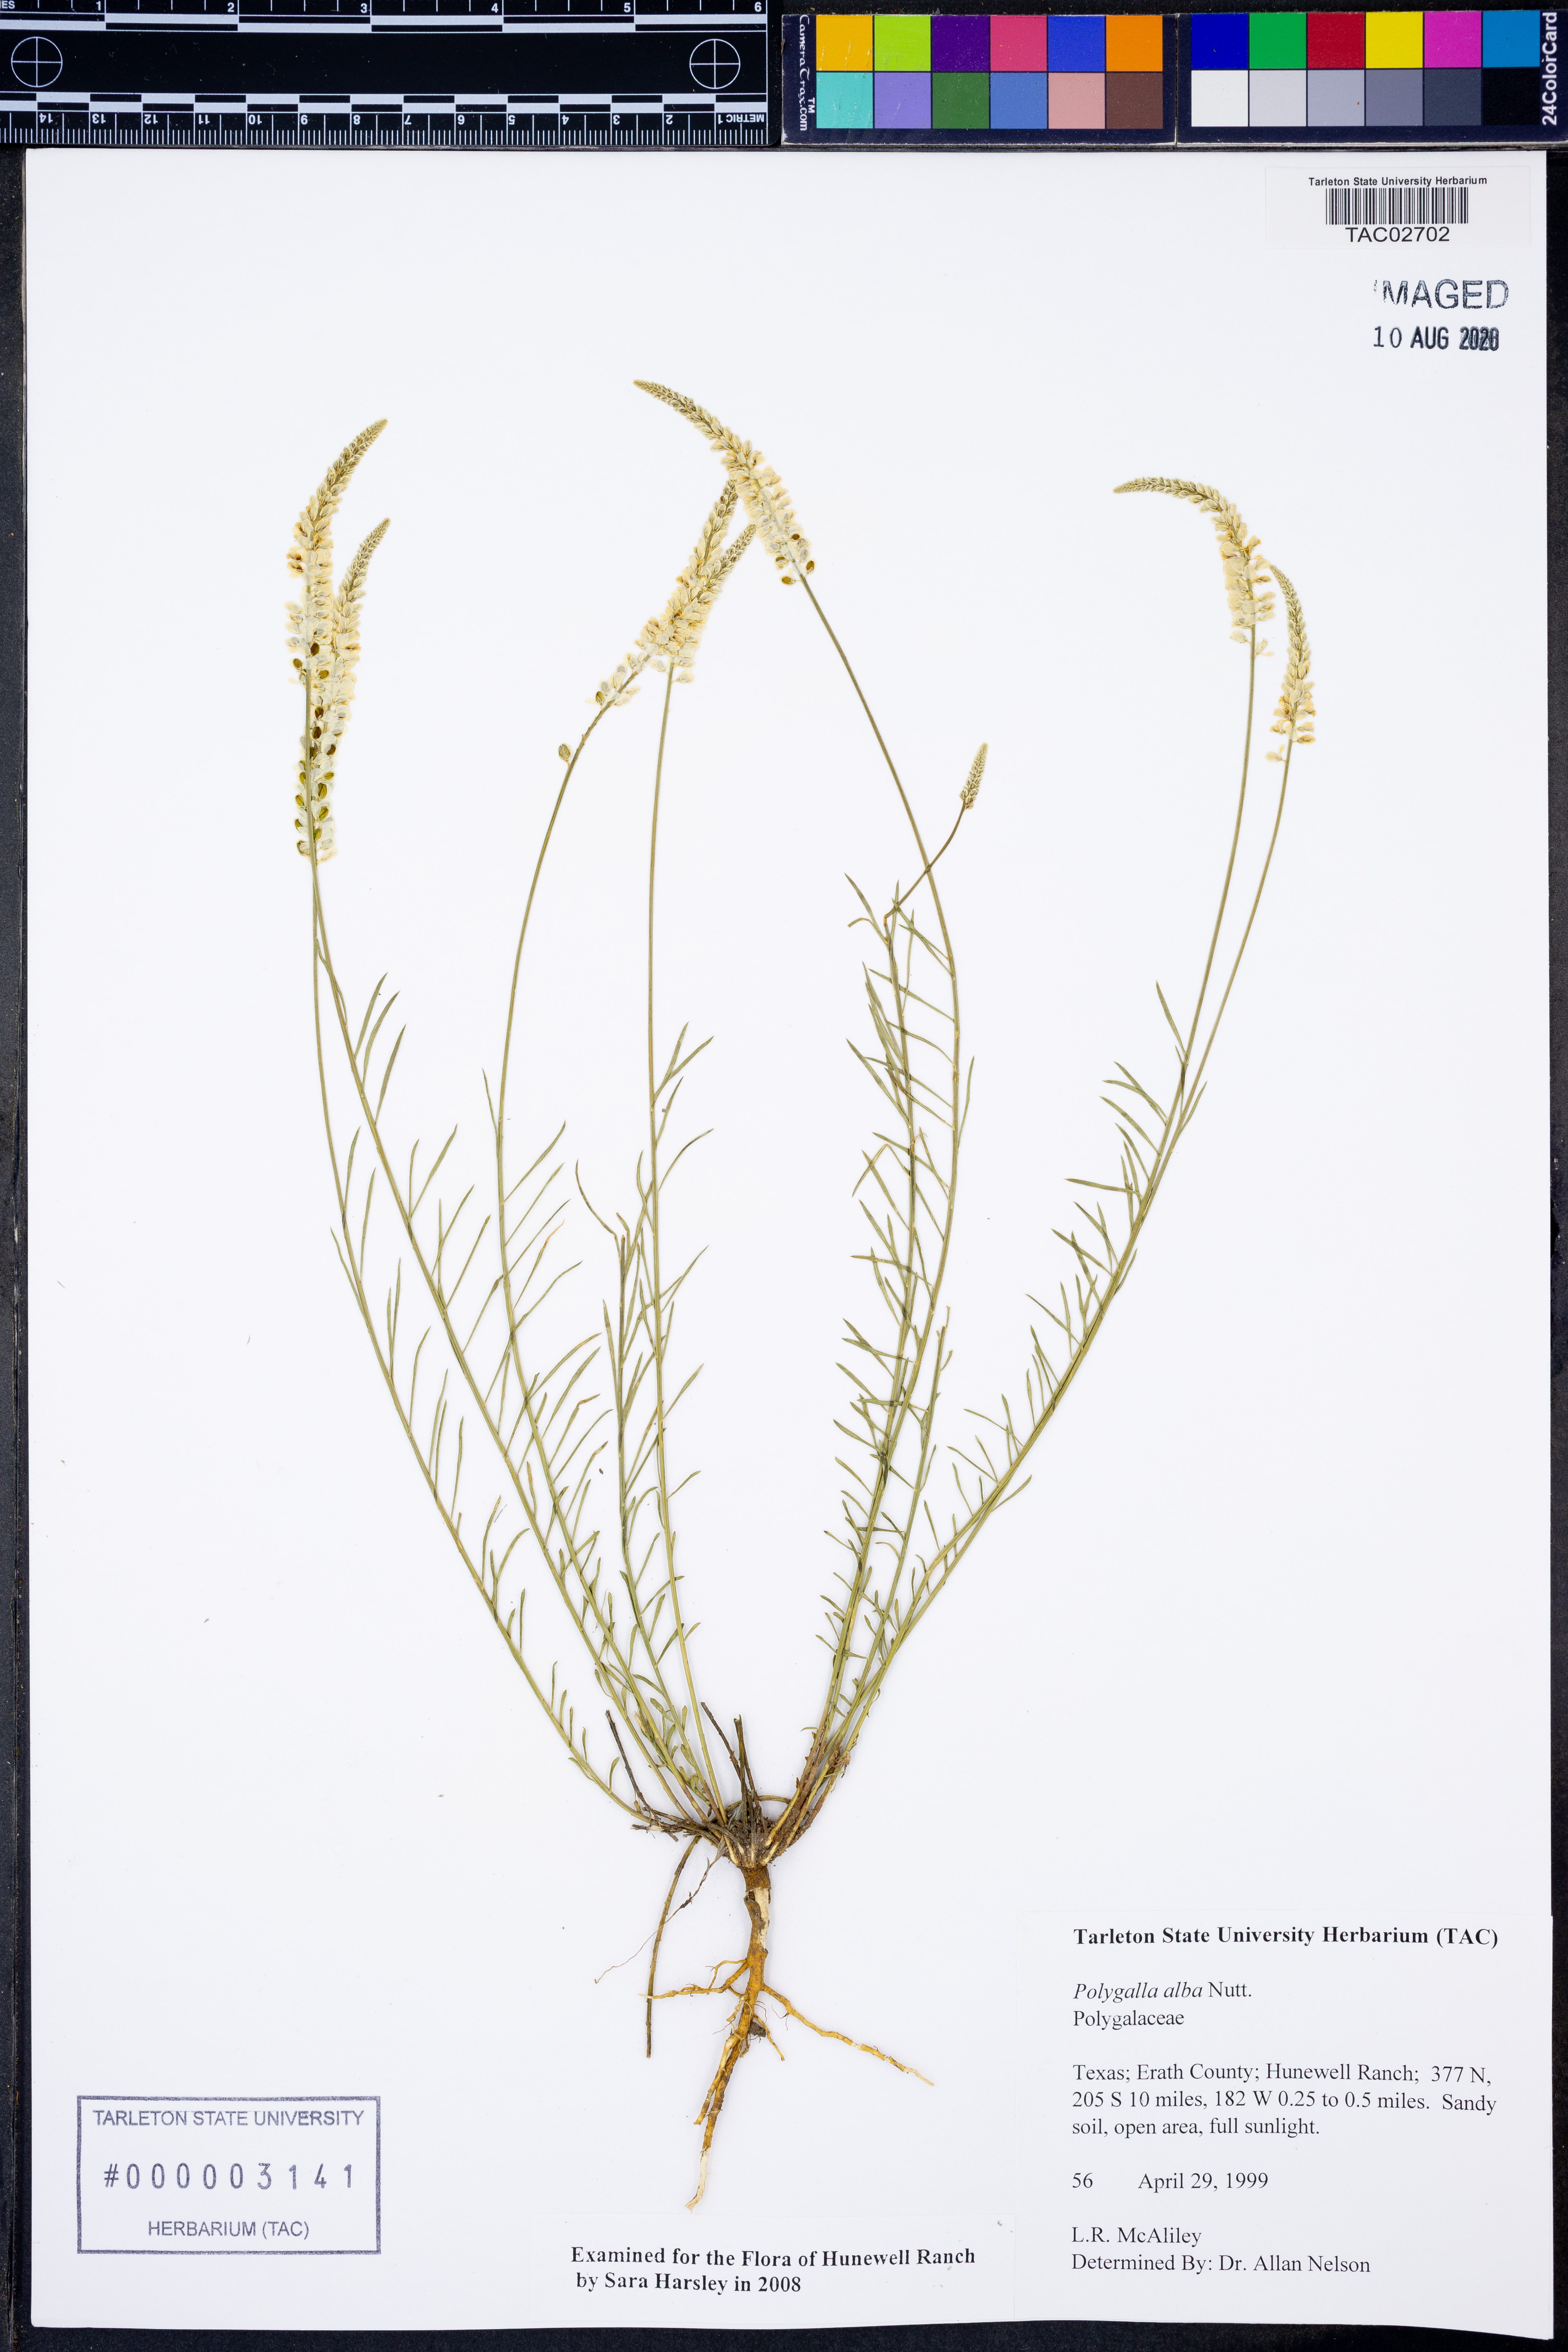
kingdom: Plantae
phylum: Tracheophyta
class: Magnoliopsida
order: Fabales
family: Polygalaceae
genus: Polygala
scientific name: Polygala alba
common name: White milkwort
